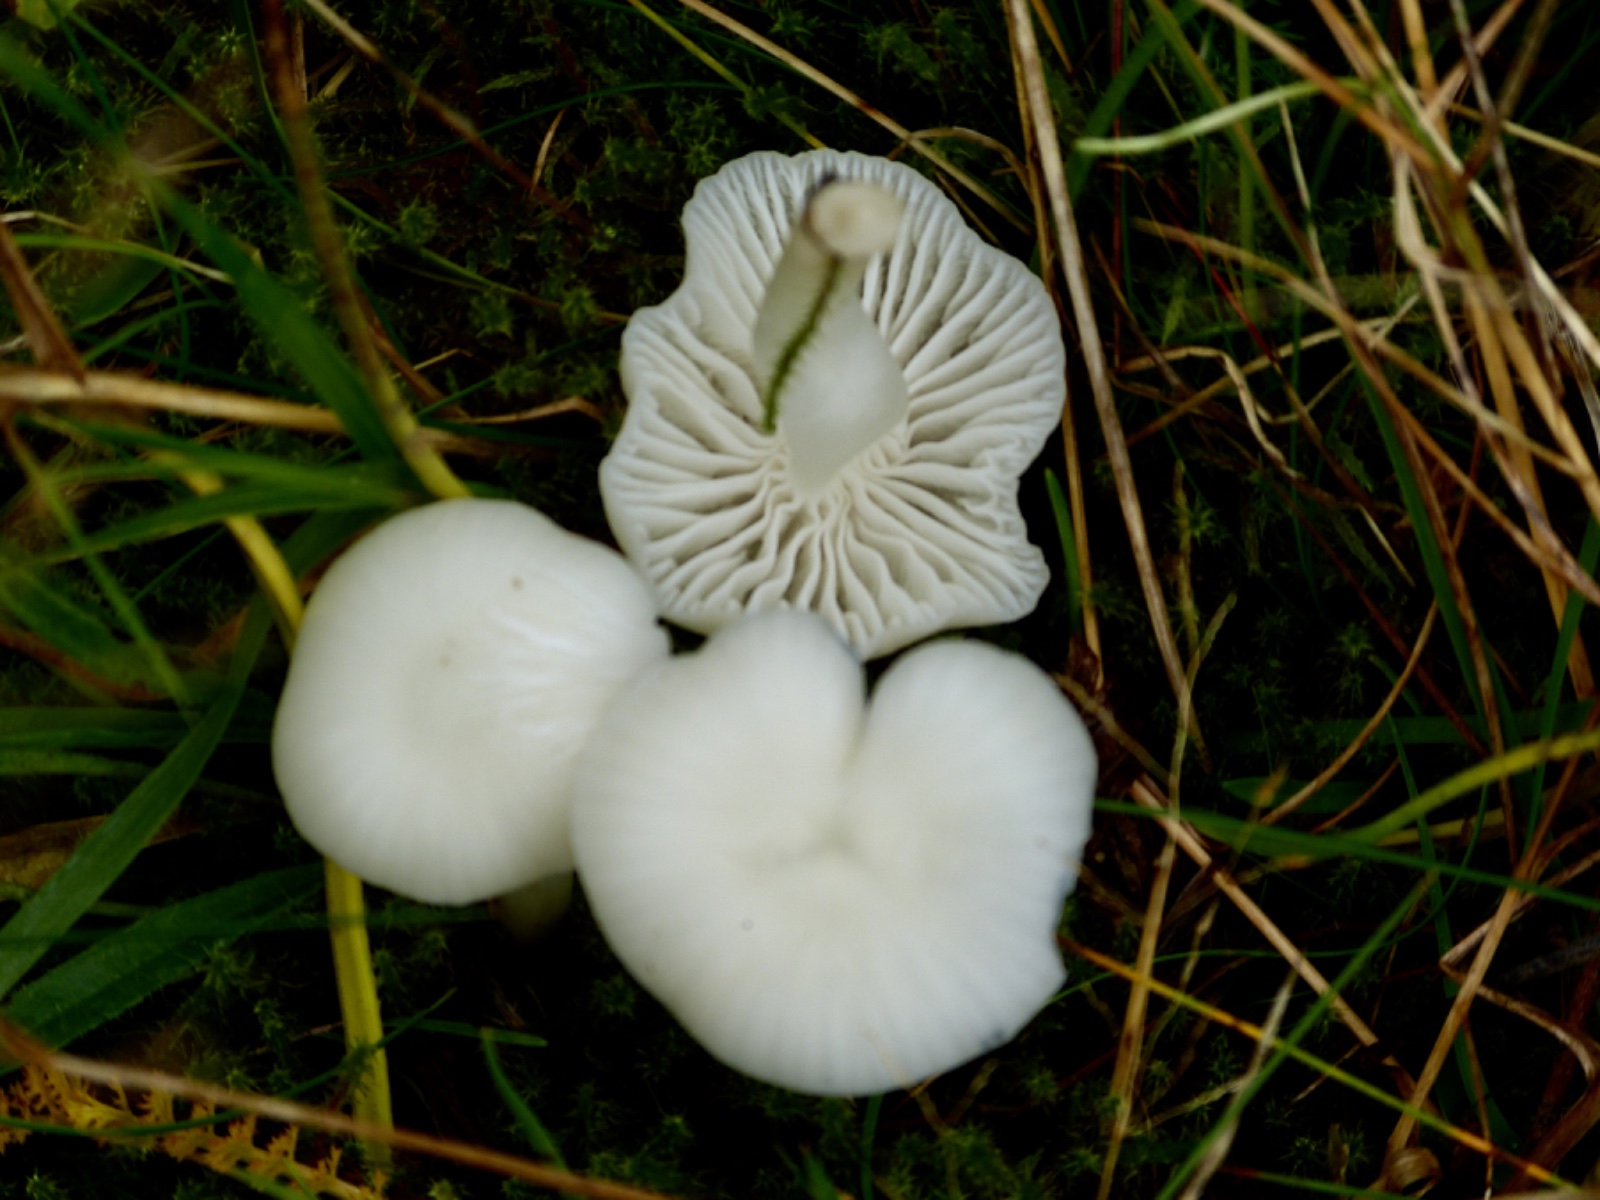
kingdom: Fungi
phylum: Basidiomycota
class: Agaricomycetes
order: Agaricales
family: Hygrophoraceae
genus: Cuphophyllus
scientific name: Cuphophyllus virgineus
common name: snehvid vokshat
